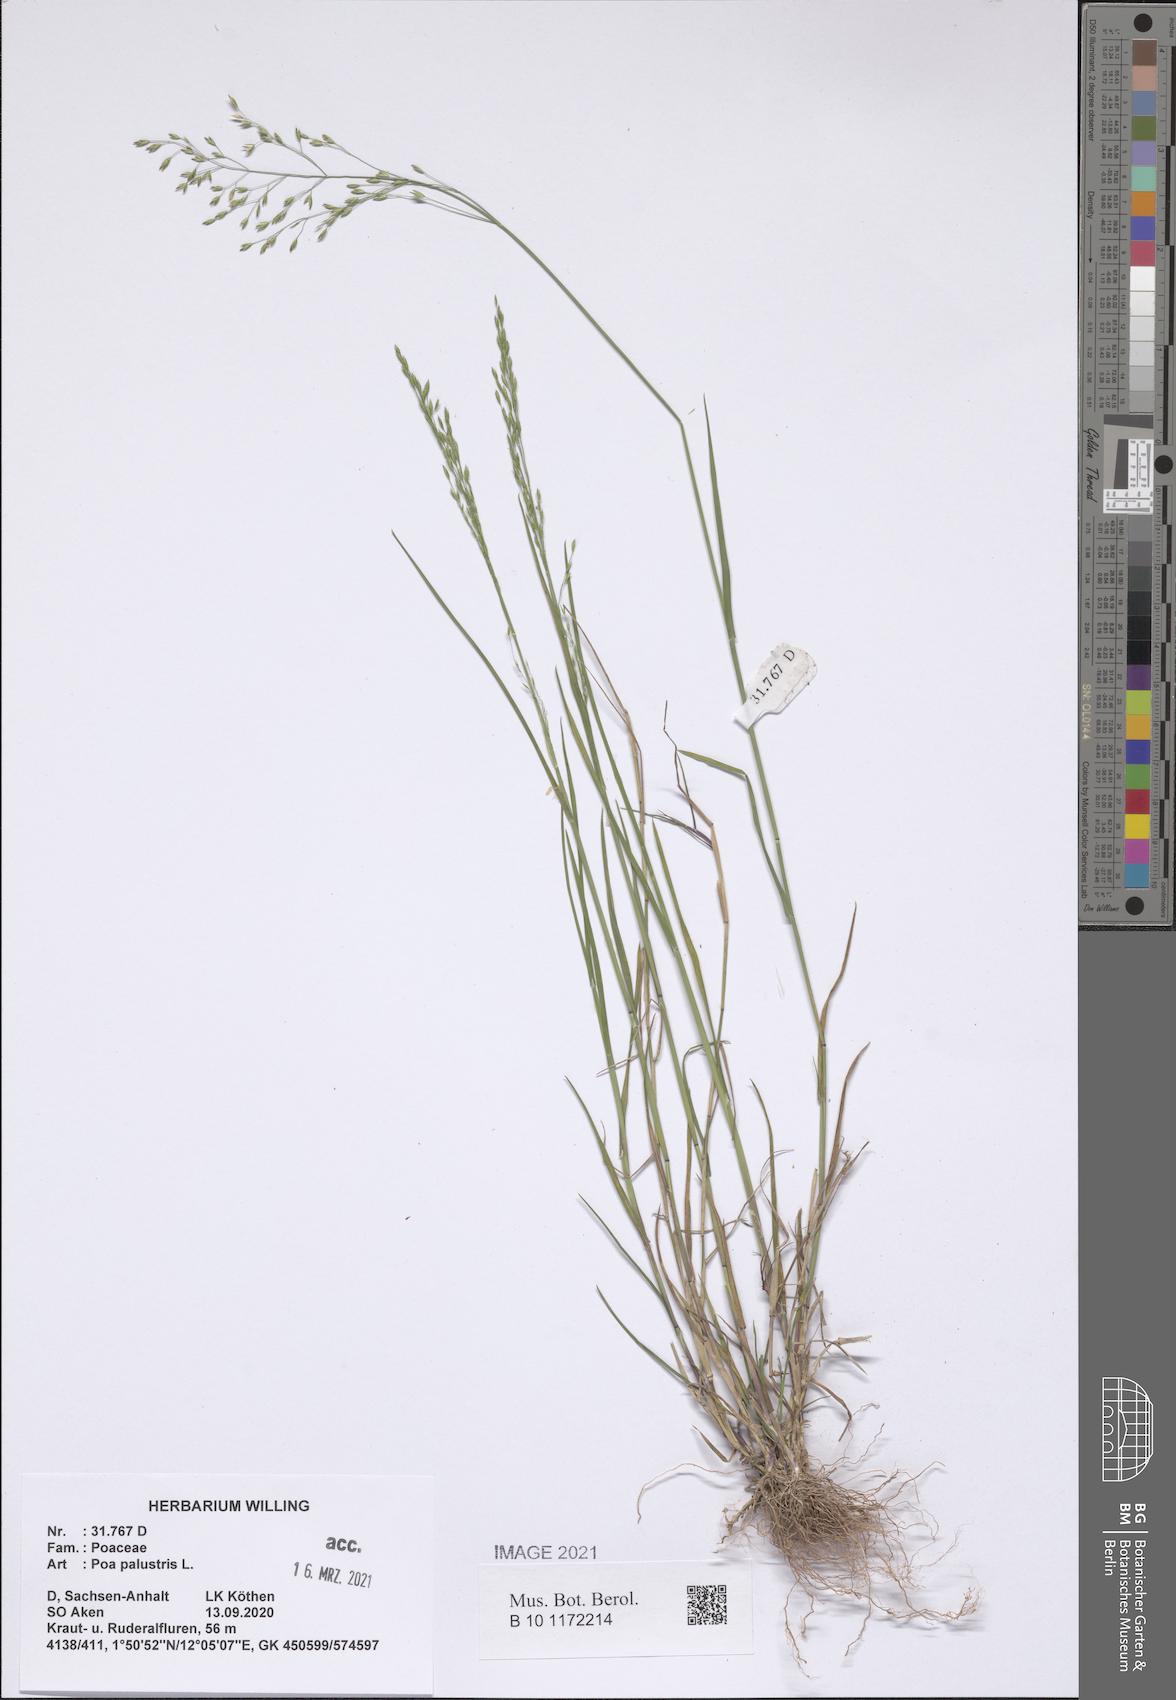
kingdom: Plantae
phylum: Tracheophyta
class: Liliopsida
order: Poales
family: Poaceae
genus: Poa
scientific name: Poa palustris
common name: Swamp meadow-grass
